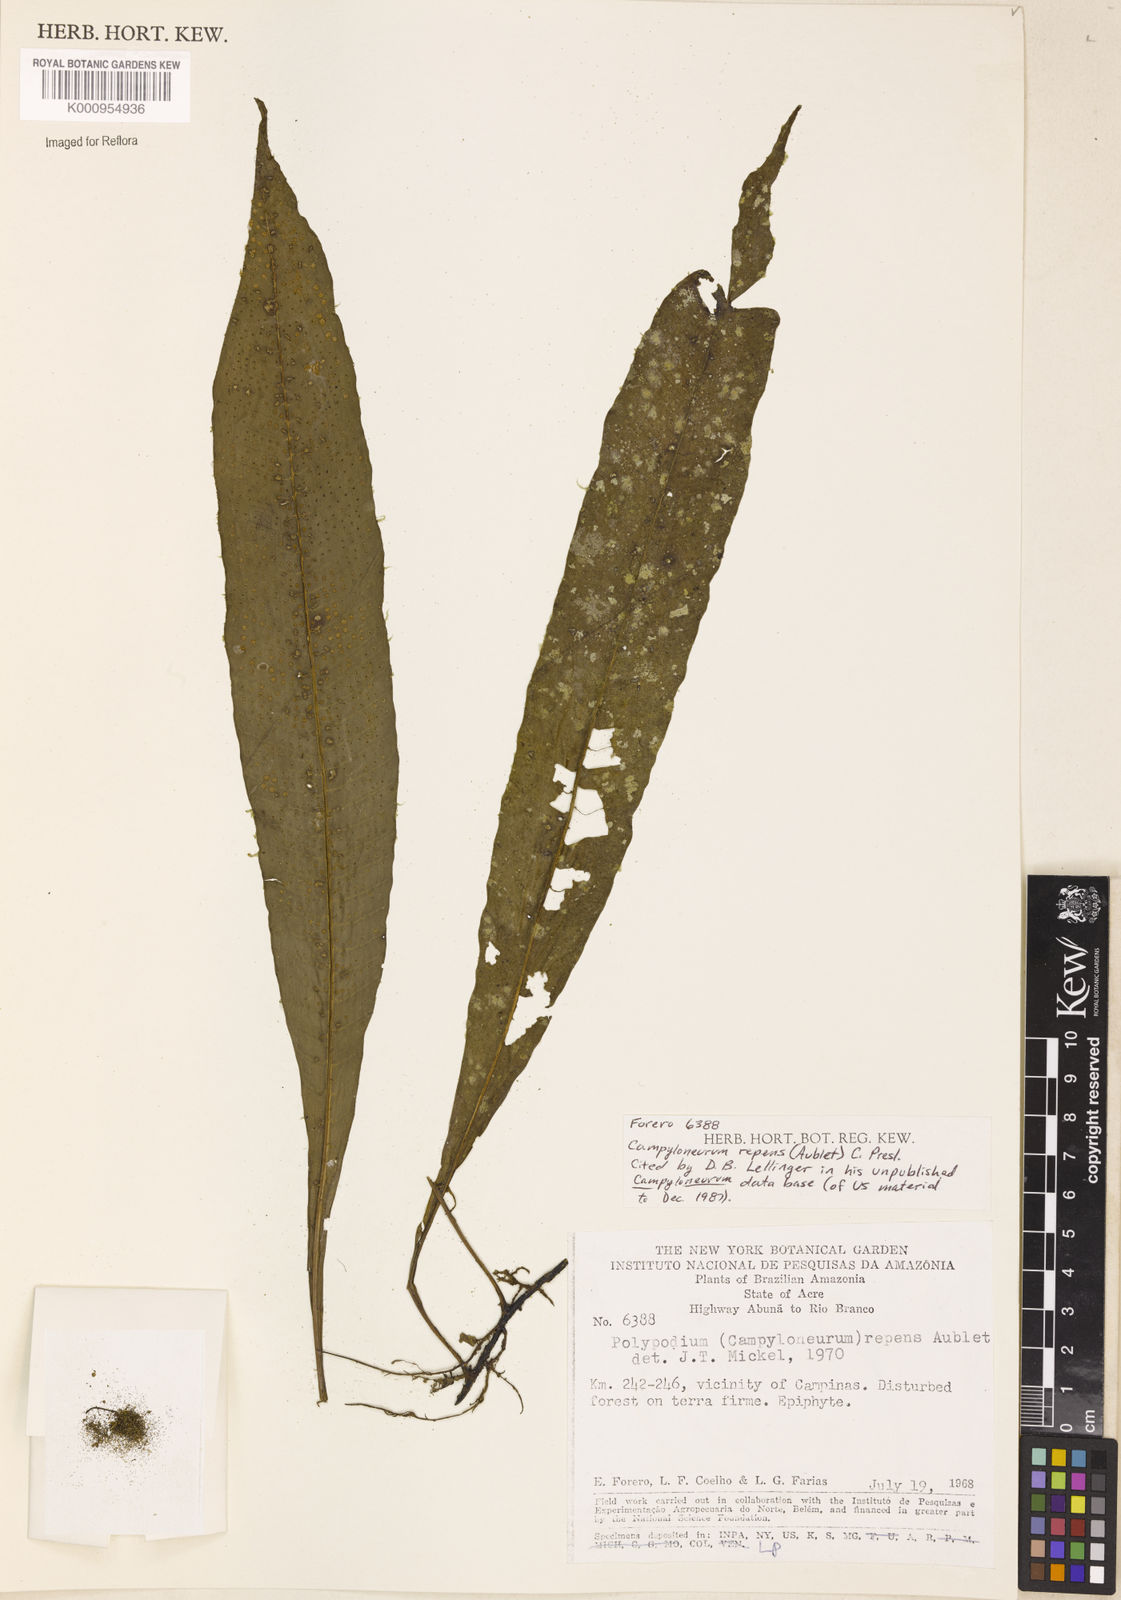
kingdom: Plantae
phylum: Tracheophyta
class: Polypodiopsida
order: Polypodiales
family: Polypodiaceae
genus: Campyloneurum
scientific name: Campyloneurum repens
